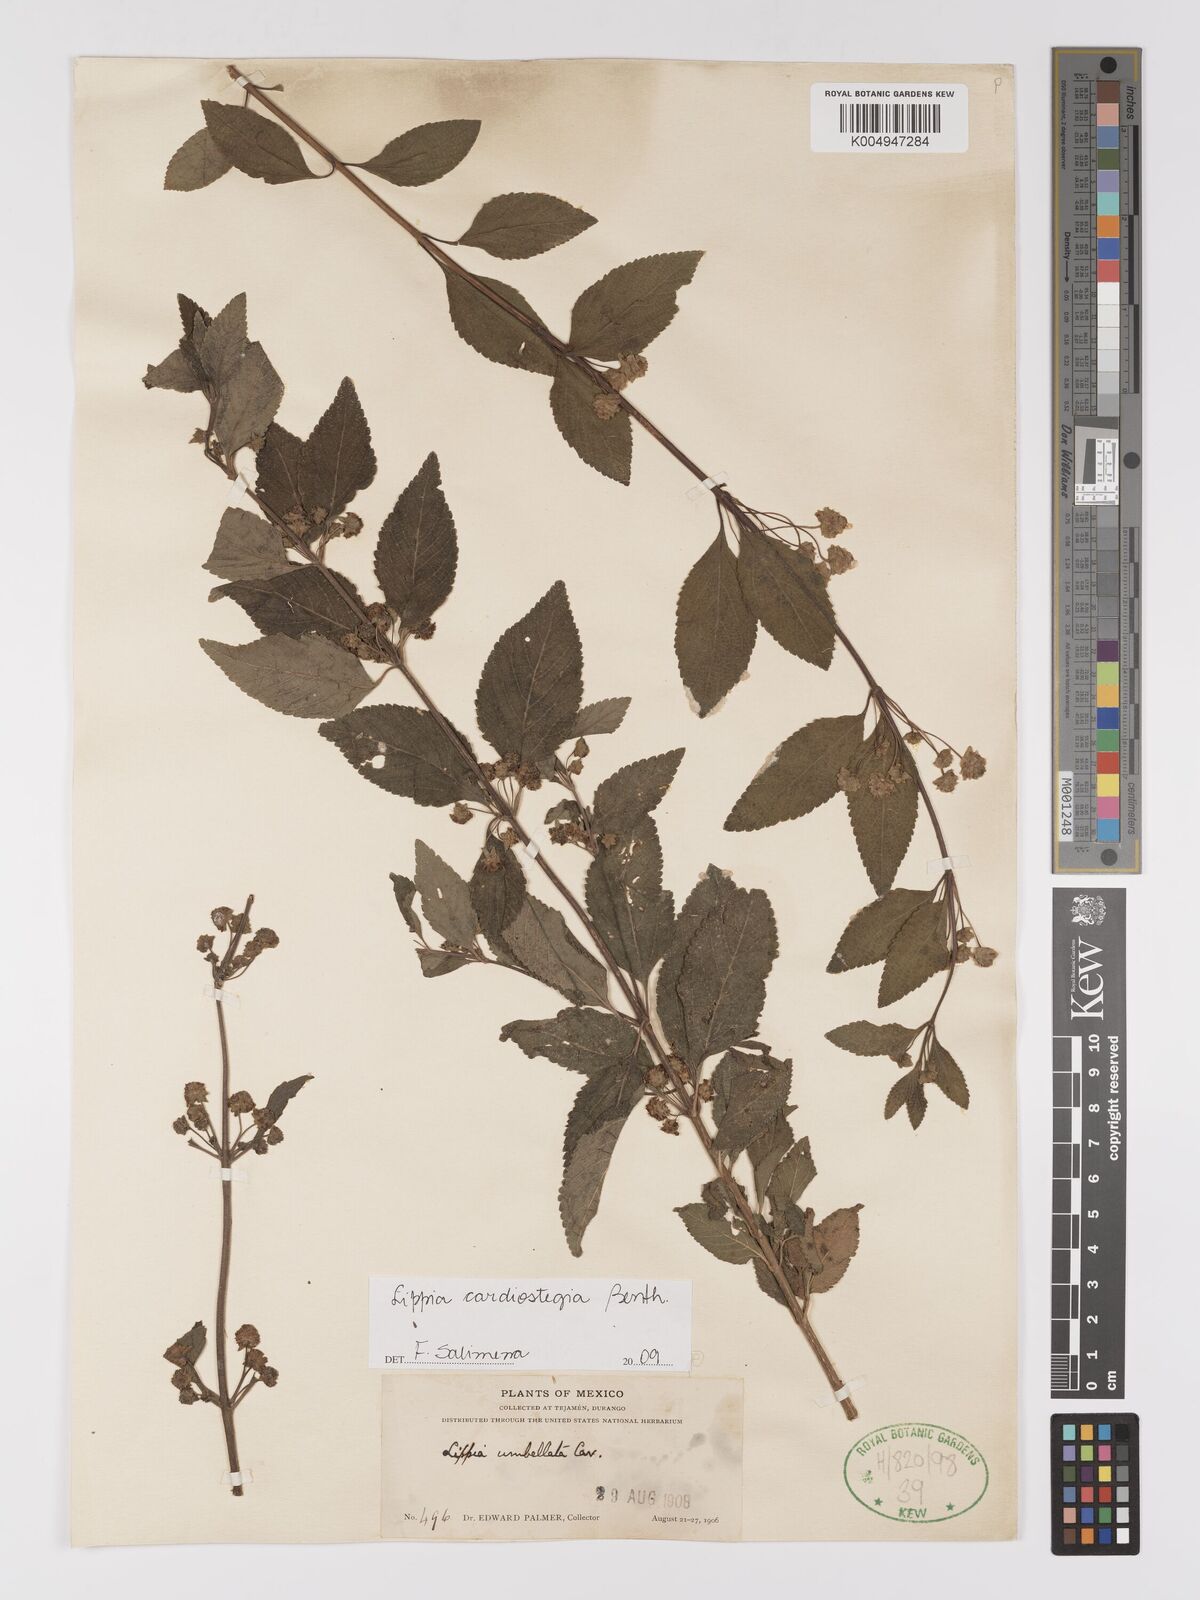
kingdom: Plantae
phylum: Tracheophyta
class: Magnoliopsida
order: Lamiales
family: Verbenaceae
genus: Lippia
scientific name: Lippia cardiostegia
